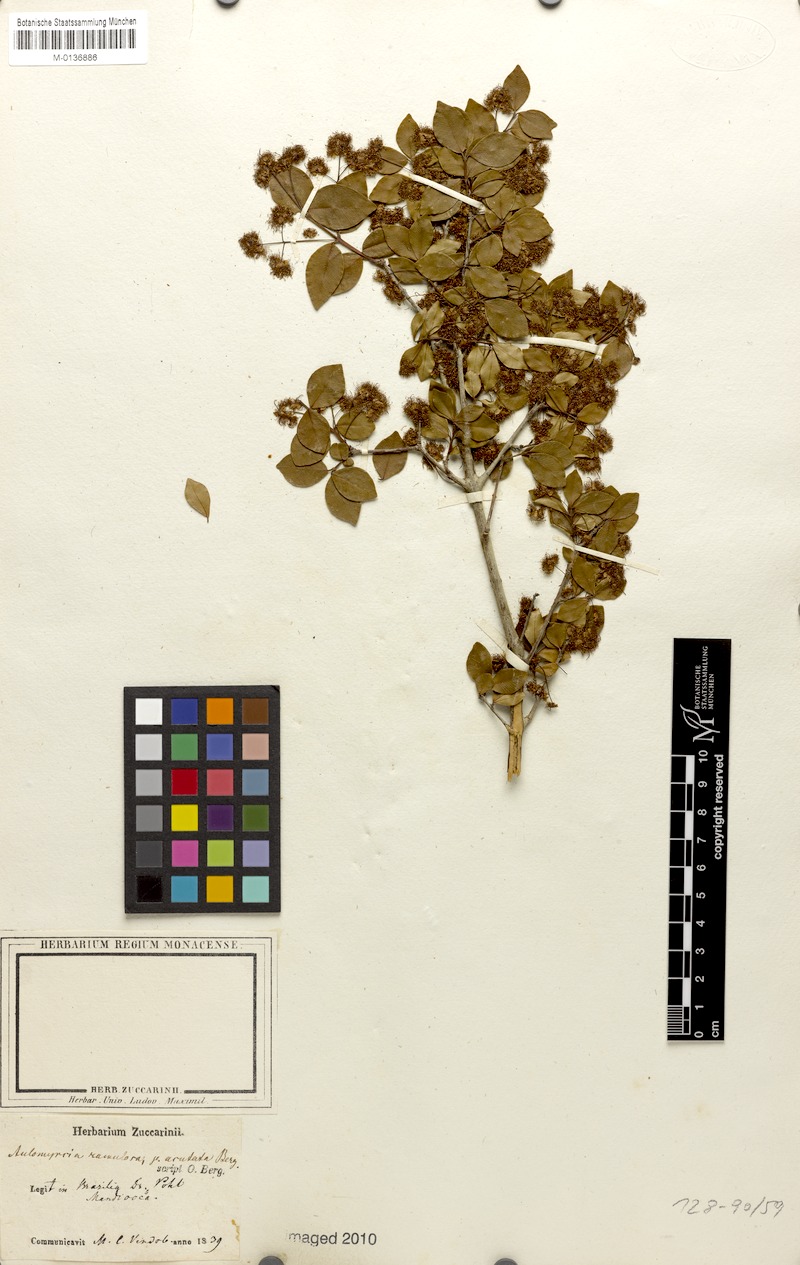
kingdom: Plantae
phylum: Tracheophyta
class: Magnoliopsida
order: Myrtales
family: Myrtaceae
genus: Myrcia
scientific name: Myrcia selloi
